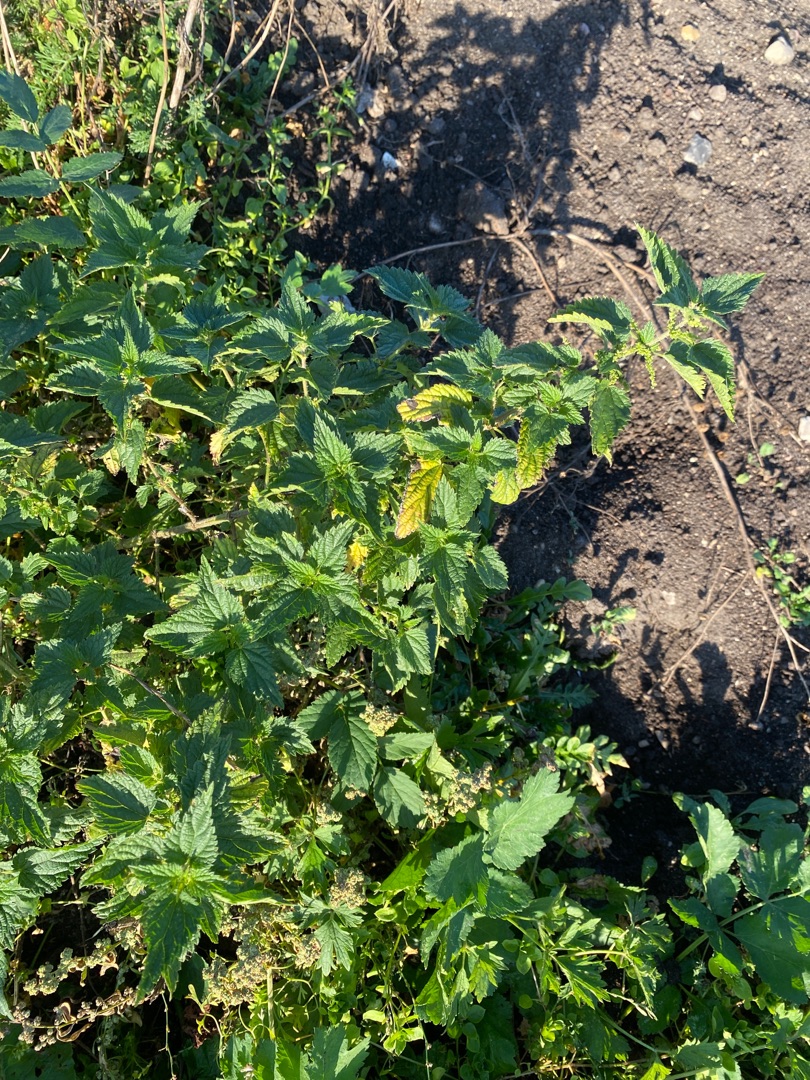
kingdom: Plantae
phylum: Tracheophyta
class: Magnoliopsida
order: Rosales
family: Urticaceae
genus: Urtica
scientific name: Urtica dioica
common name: Stor nælde
